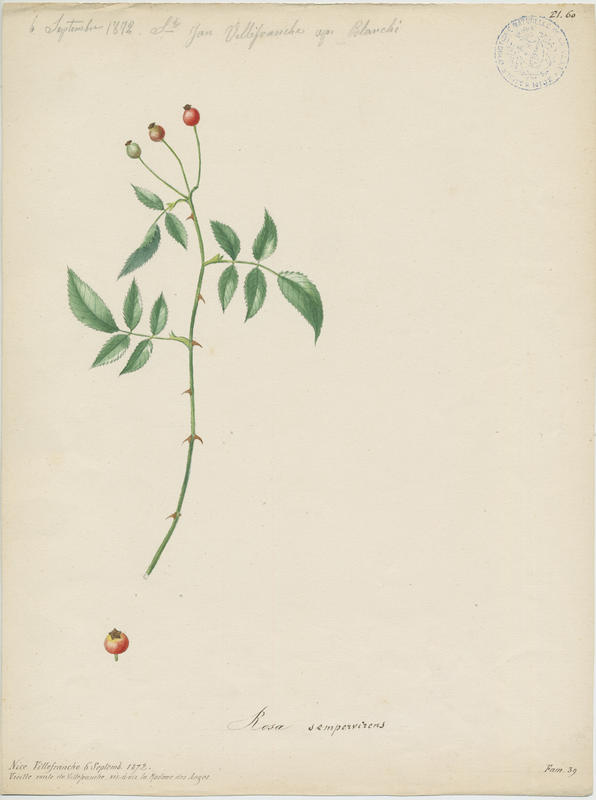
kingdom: Plantae
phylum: Tracheophyta
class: Magnoliopsida
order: Rosales
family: Rosaceae
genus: Rosa
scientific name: Rosa sempervirens
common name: Evergreen rose
